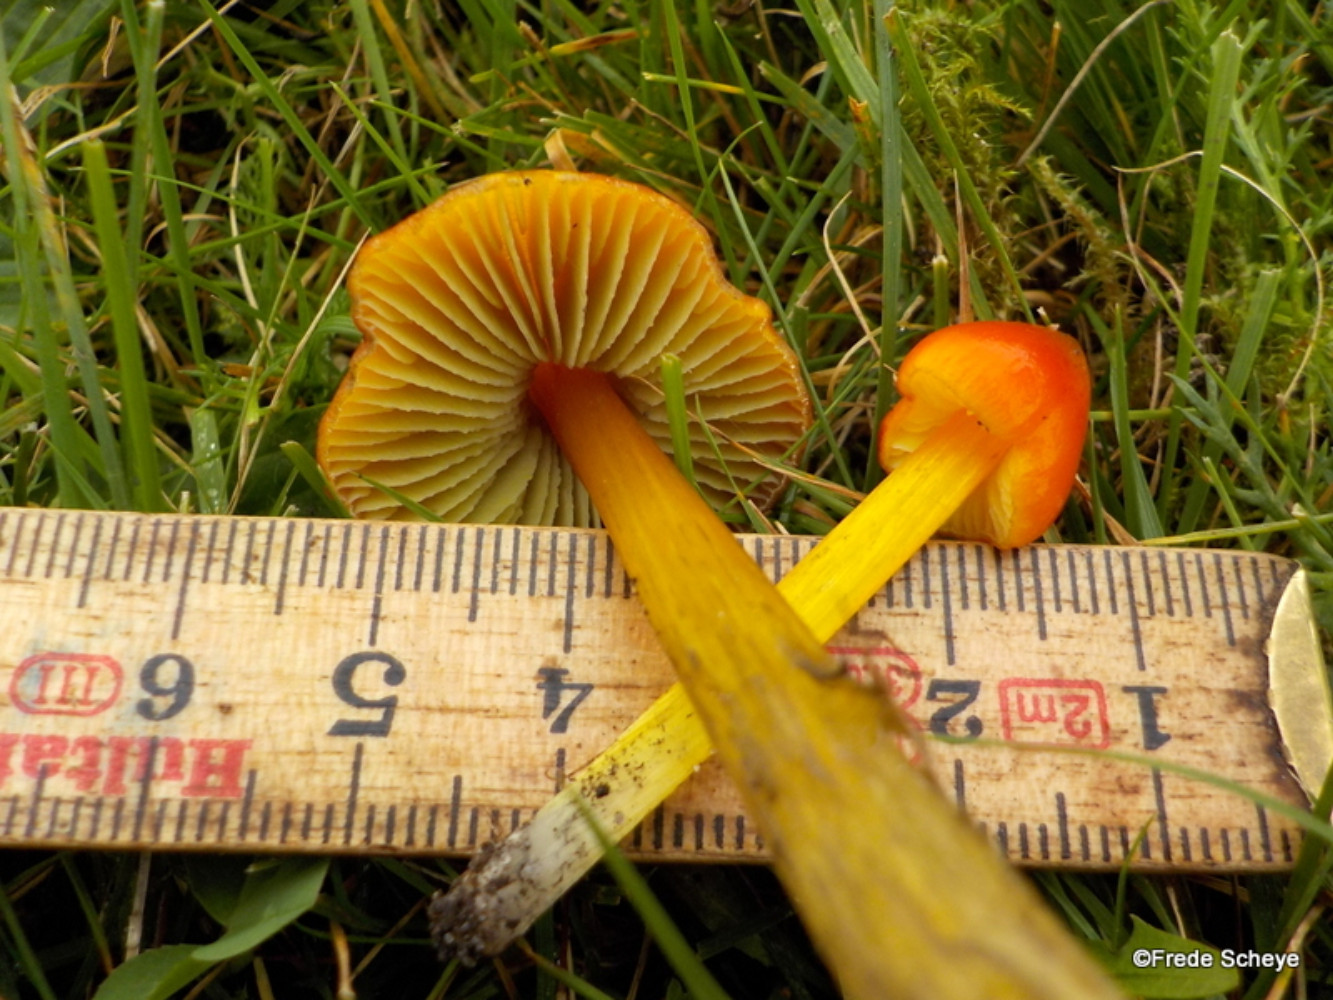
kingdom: Fungi
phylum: Basidiomycota
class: Agaricomycetes
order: Agaricales
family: Hygrophoraceae
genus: Hygrocybe
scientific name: Hygrocybe conica
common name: kegle-vokshat
